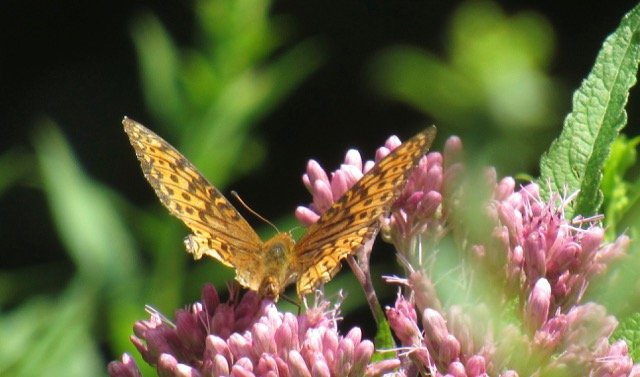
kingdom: Animalia
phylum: Arthropoda
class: Insecta
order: Lepidoptera
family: Nymphalidae
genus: Speyeria
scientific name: Speyeria atlantis
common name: Atlantis Fritillary
